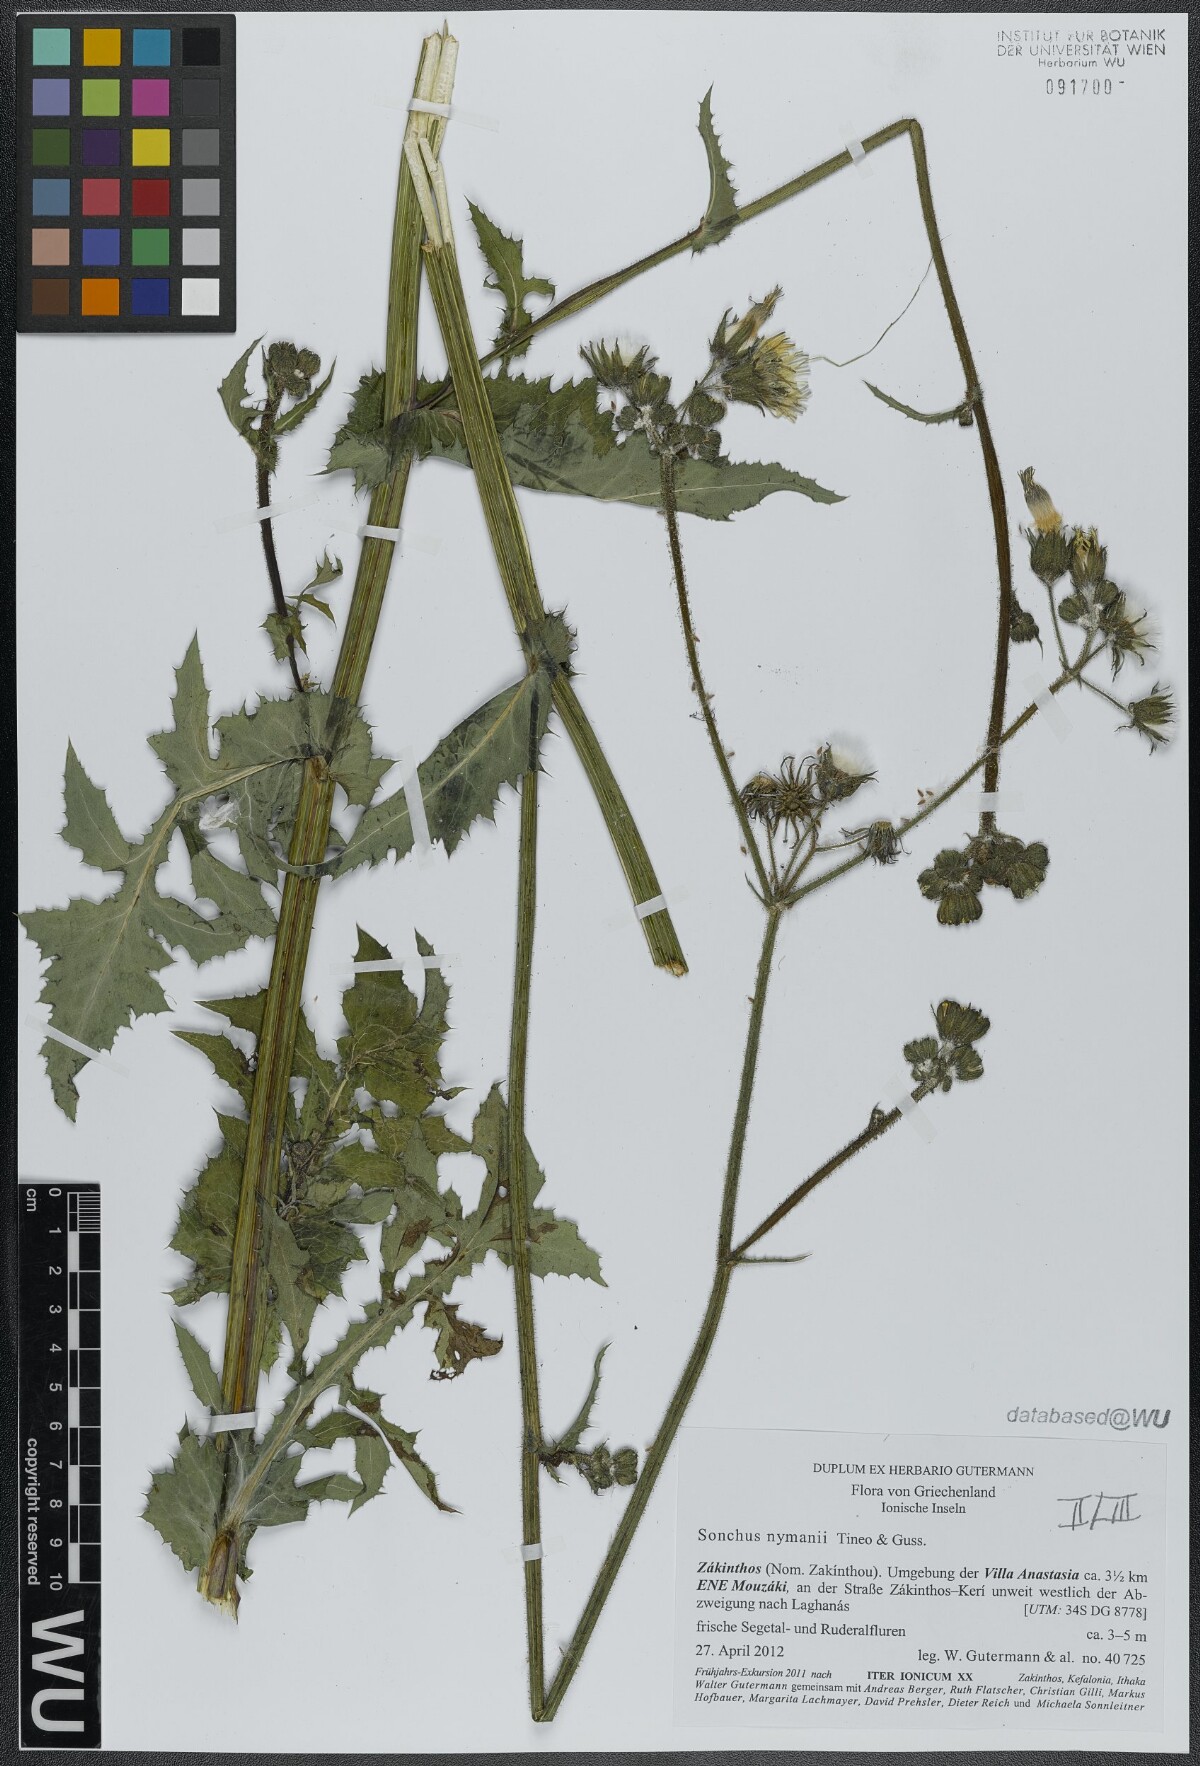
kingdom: Plantae
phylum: Tracheophyta
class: Magnoliopsida
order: Asterales
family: Asteraceae
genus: Sonchus
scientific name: Sonchus asper
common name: Prickly sow-thistle
